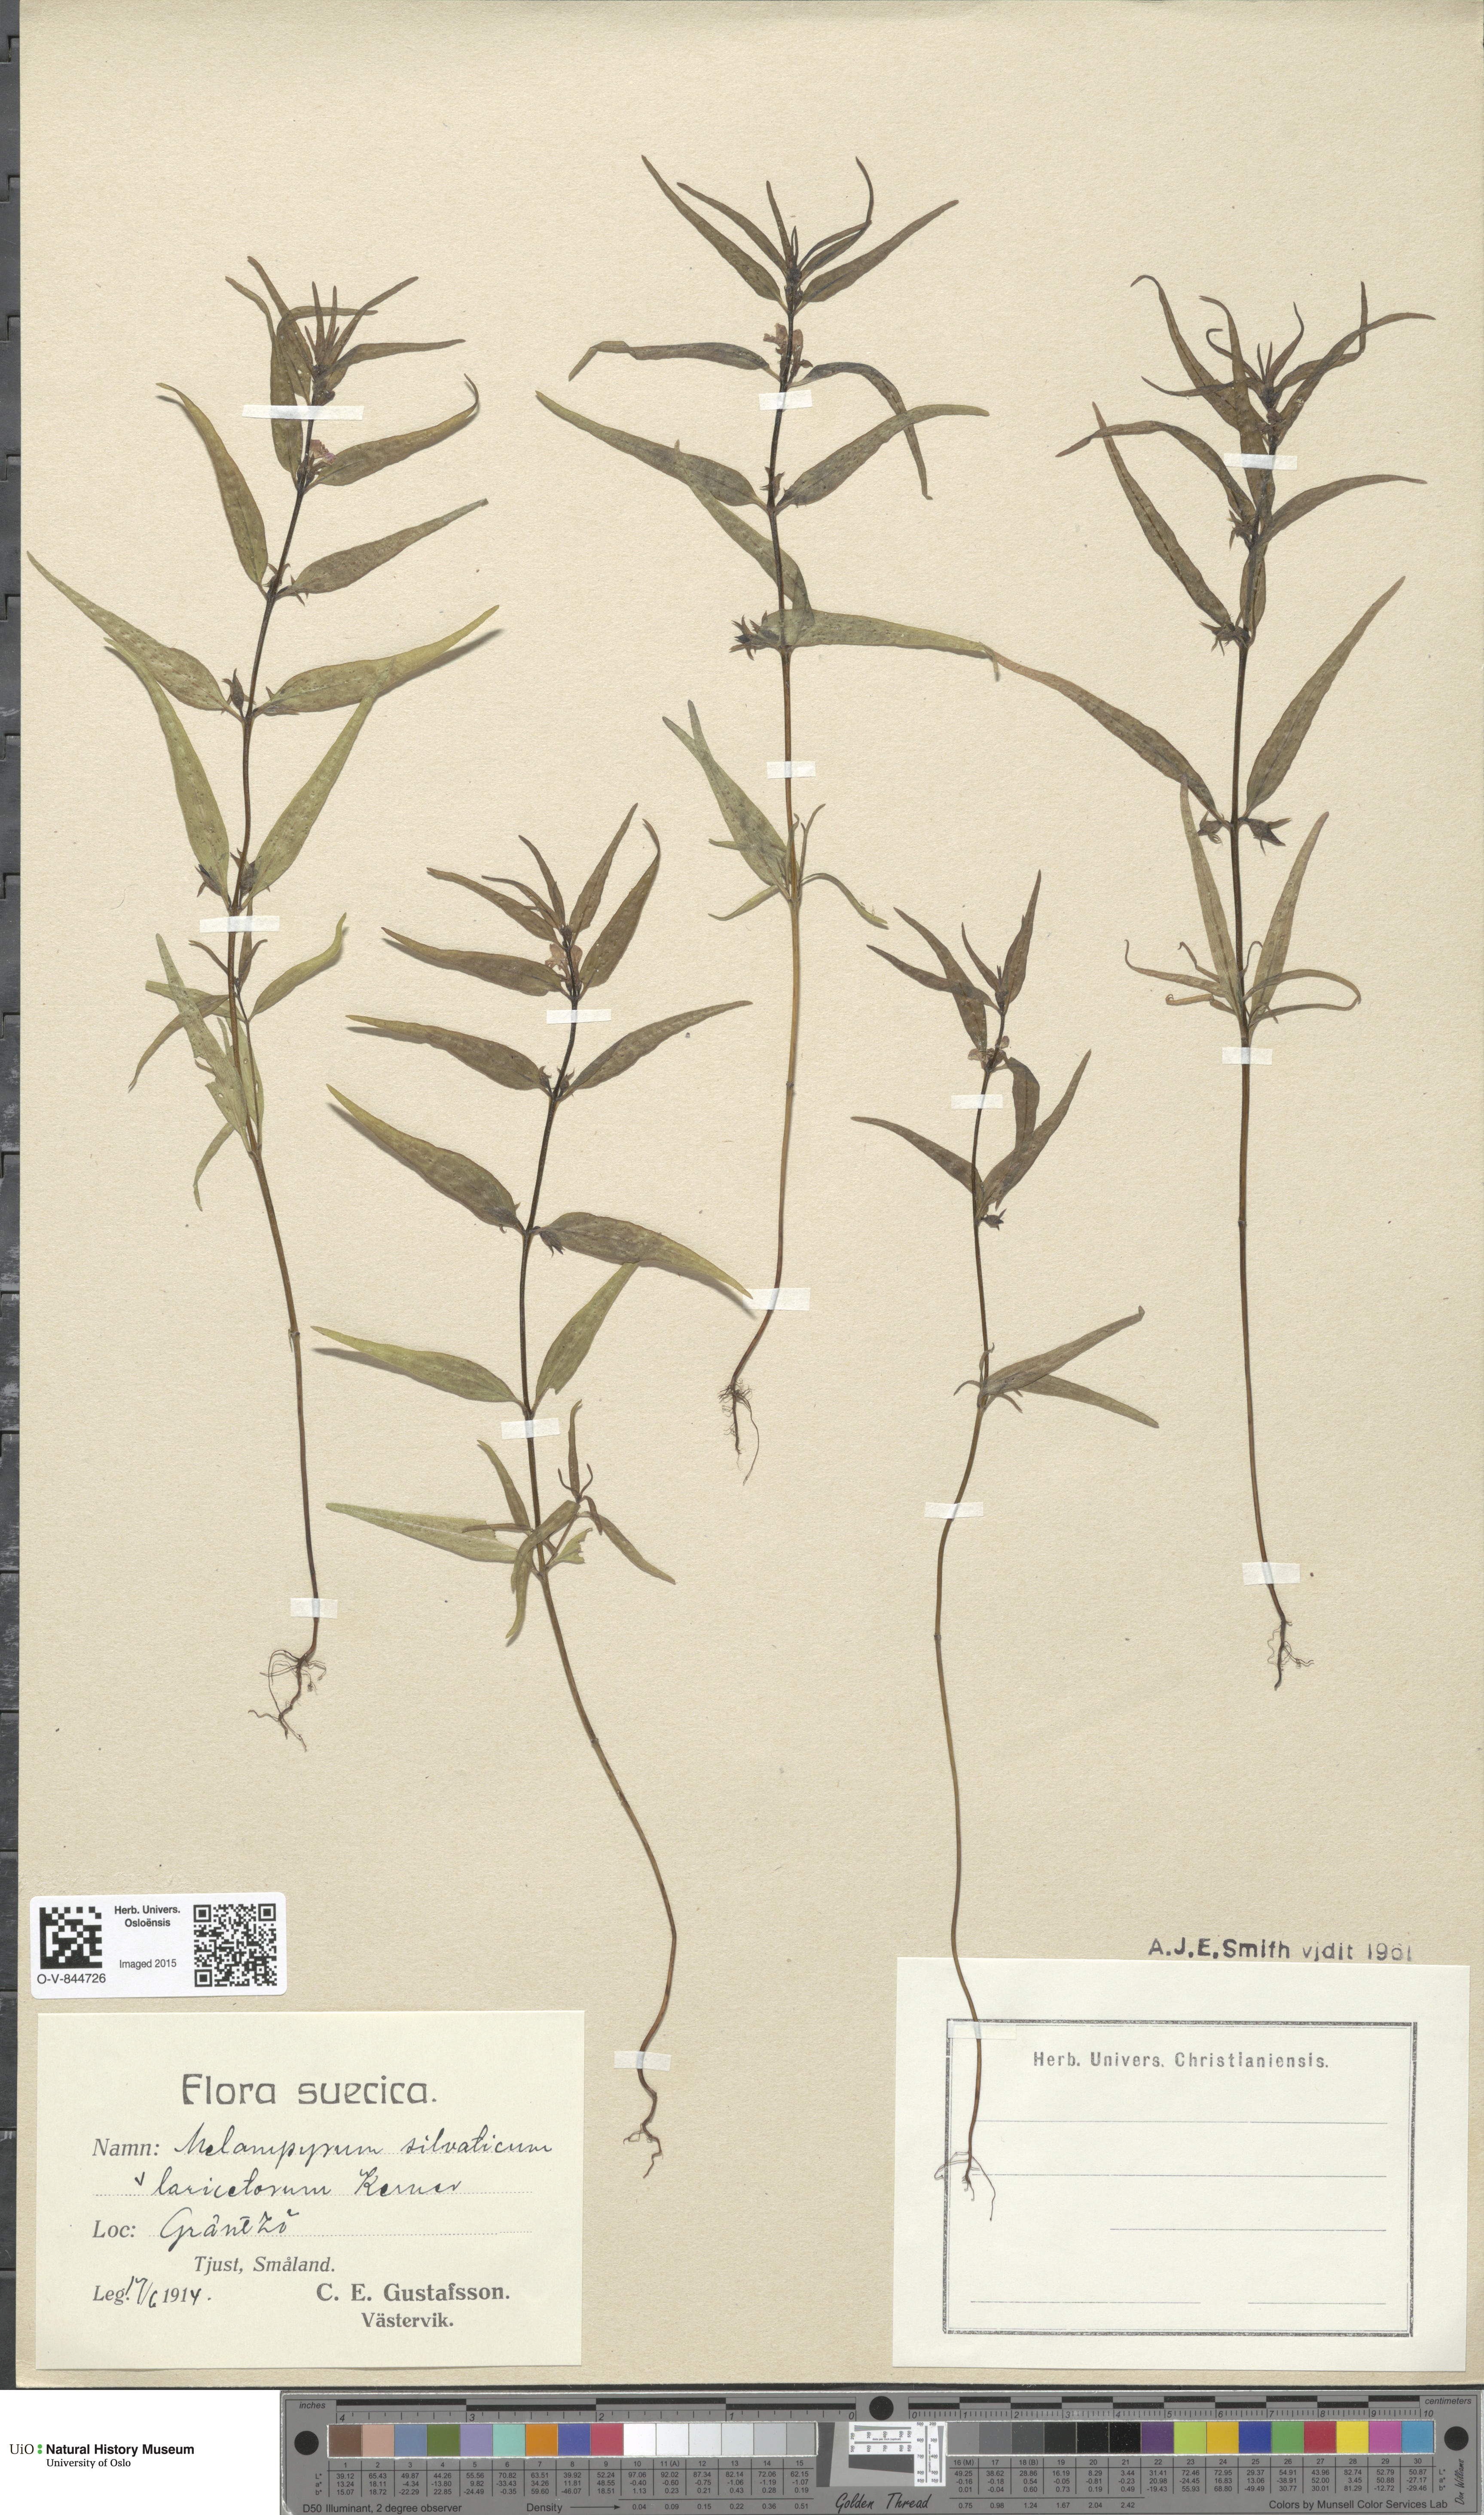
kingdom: Plantae
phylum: Tracheophyta
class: Magnoliopsida
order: Lamiales
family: Orobanchaceae
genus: Melampyrum
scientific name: Melampyrum sylvaticum
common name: Small cow-wheat
